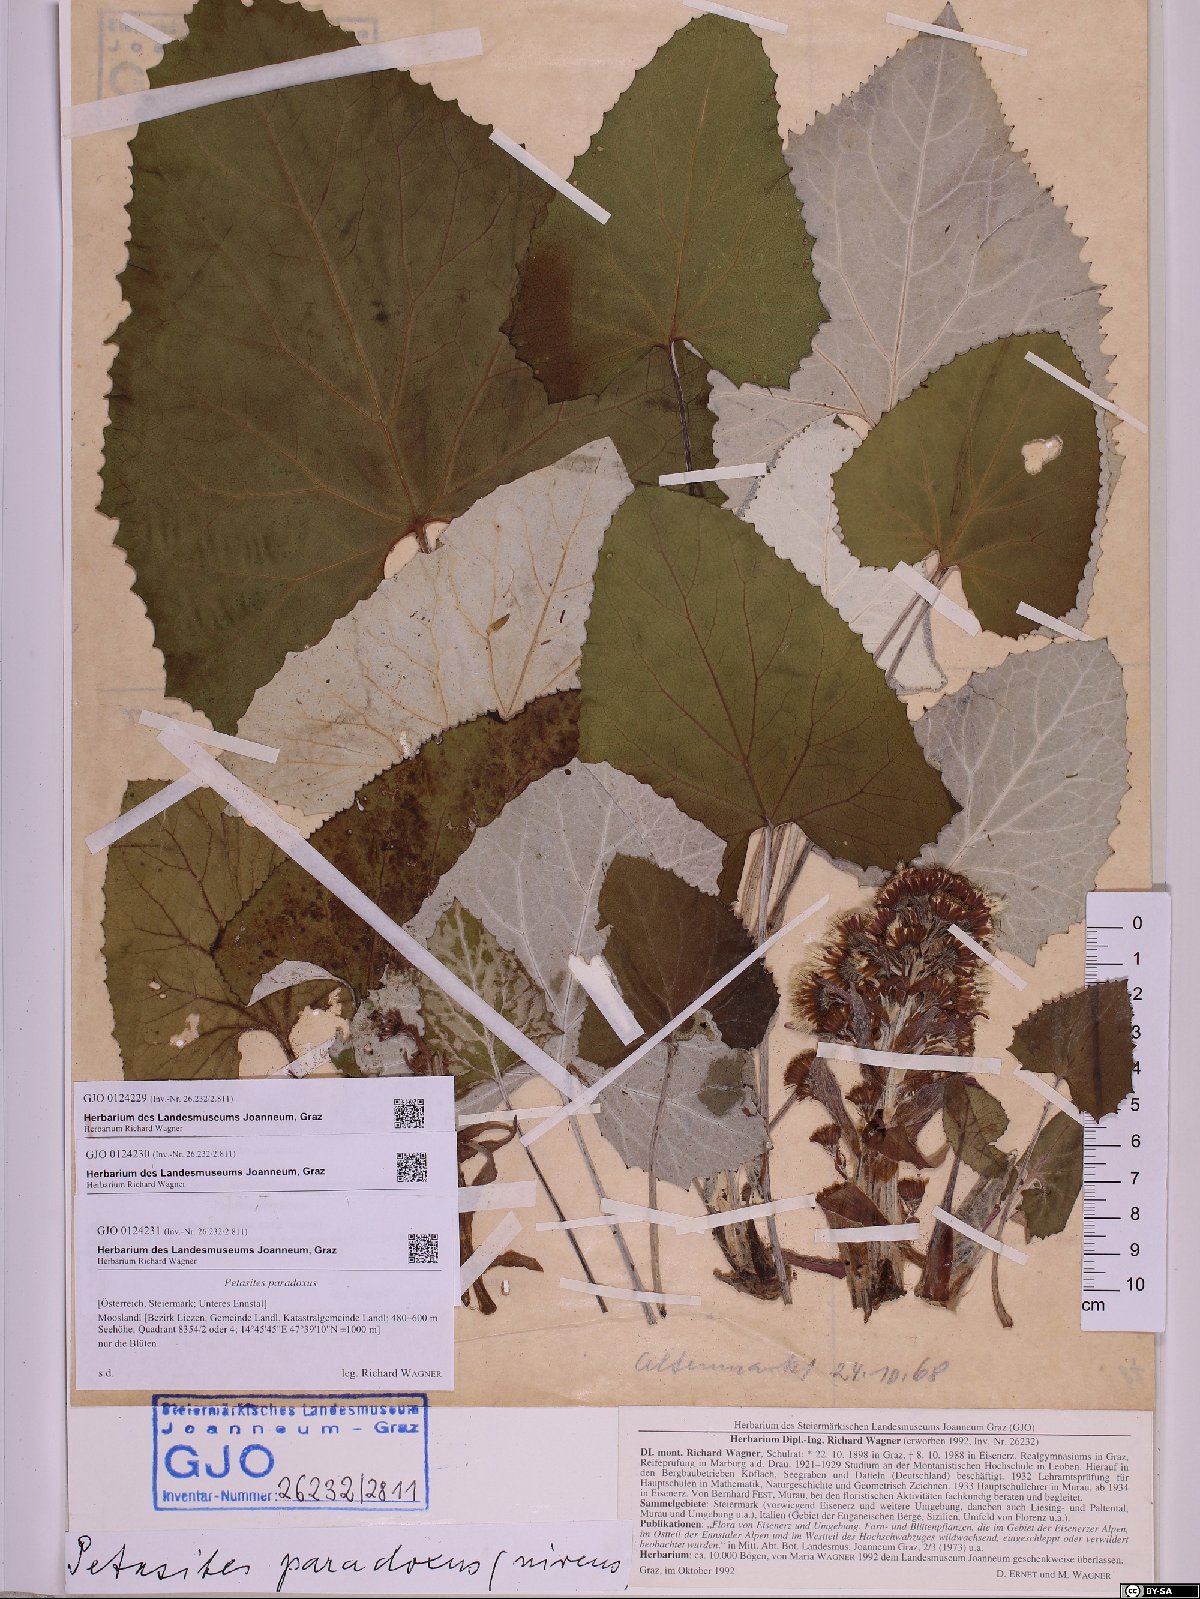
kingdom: Plantae
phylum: Tracheophyta
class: Magnoliopsida
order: Asterales
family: Asteraceae
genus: Petasites
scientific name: Petasites paradoxus
